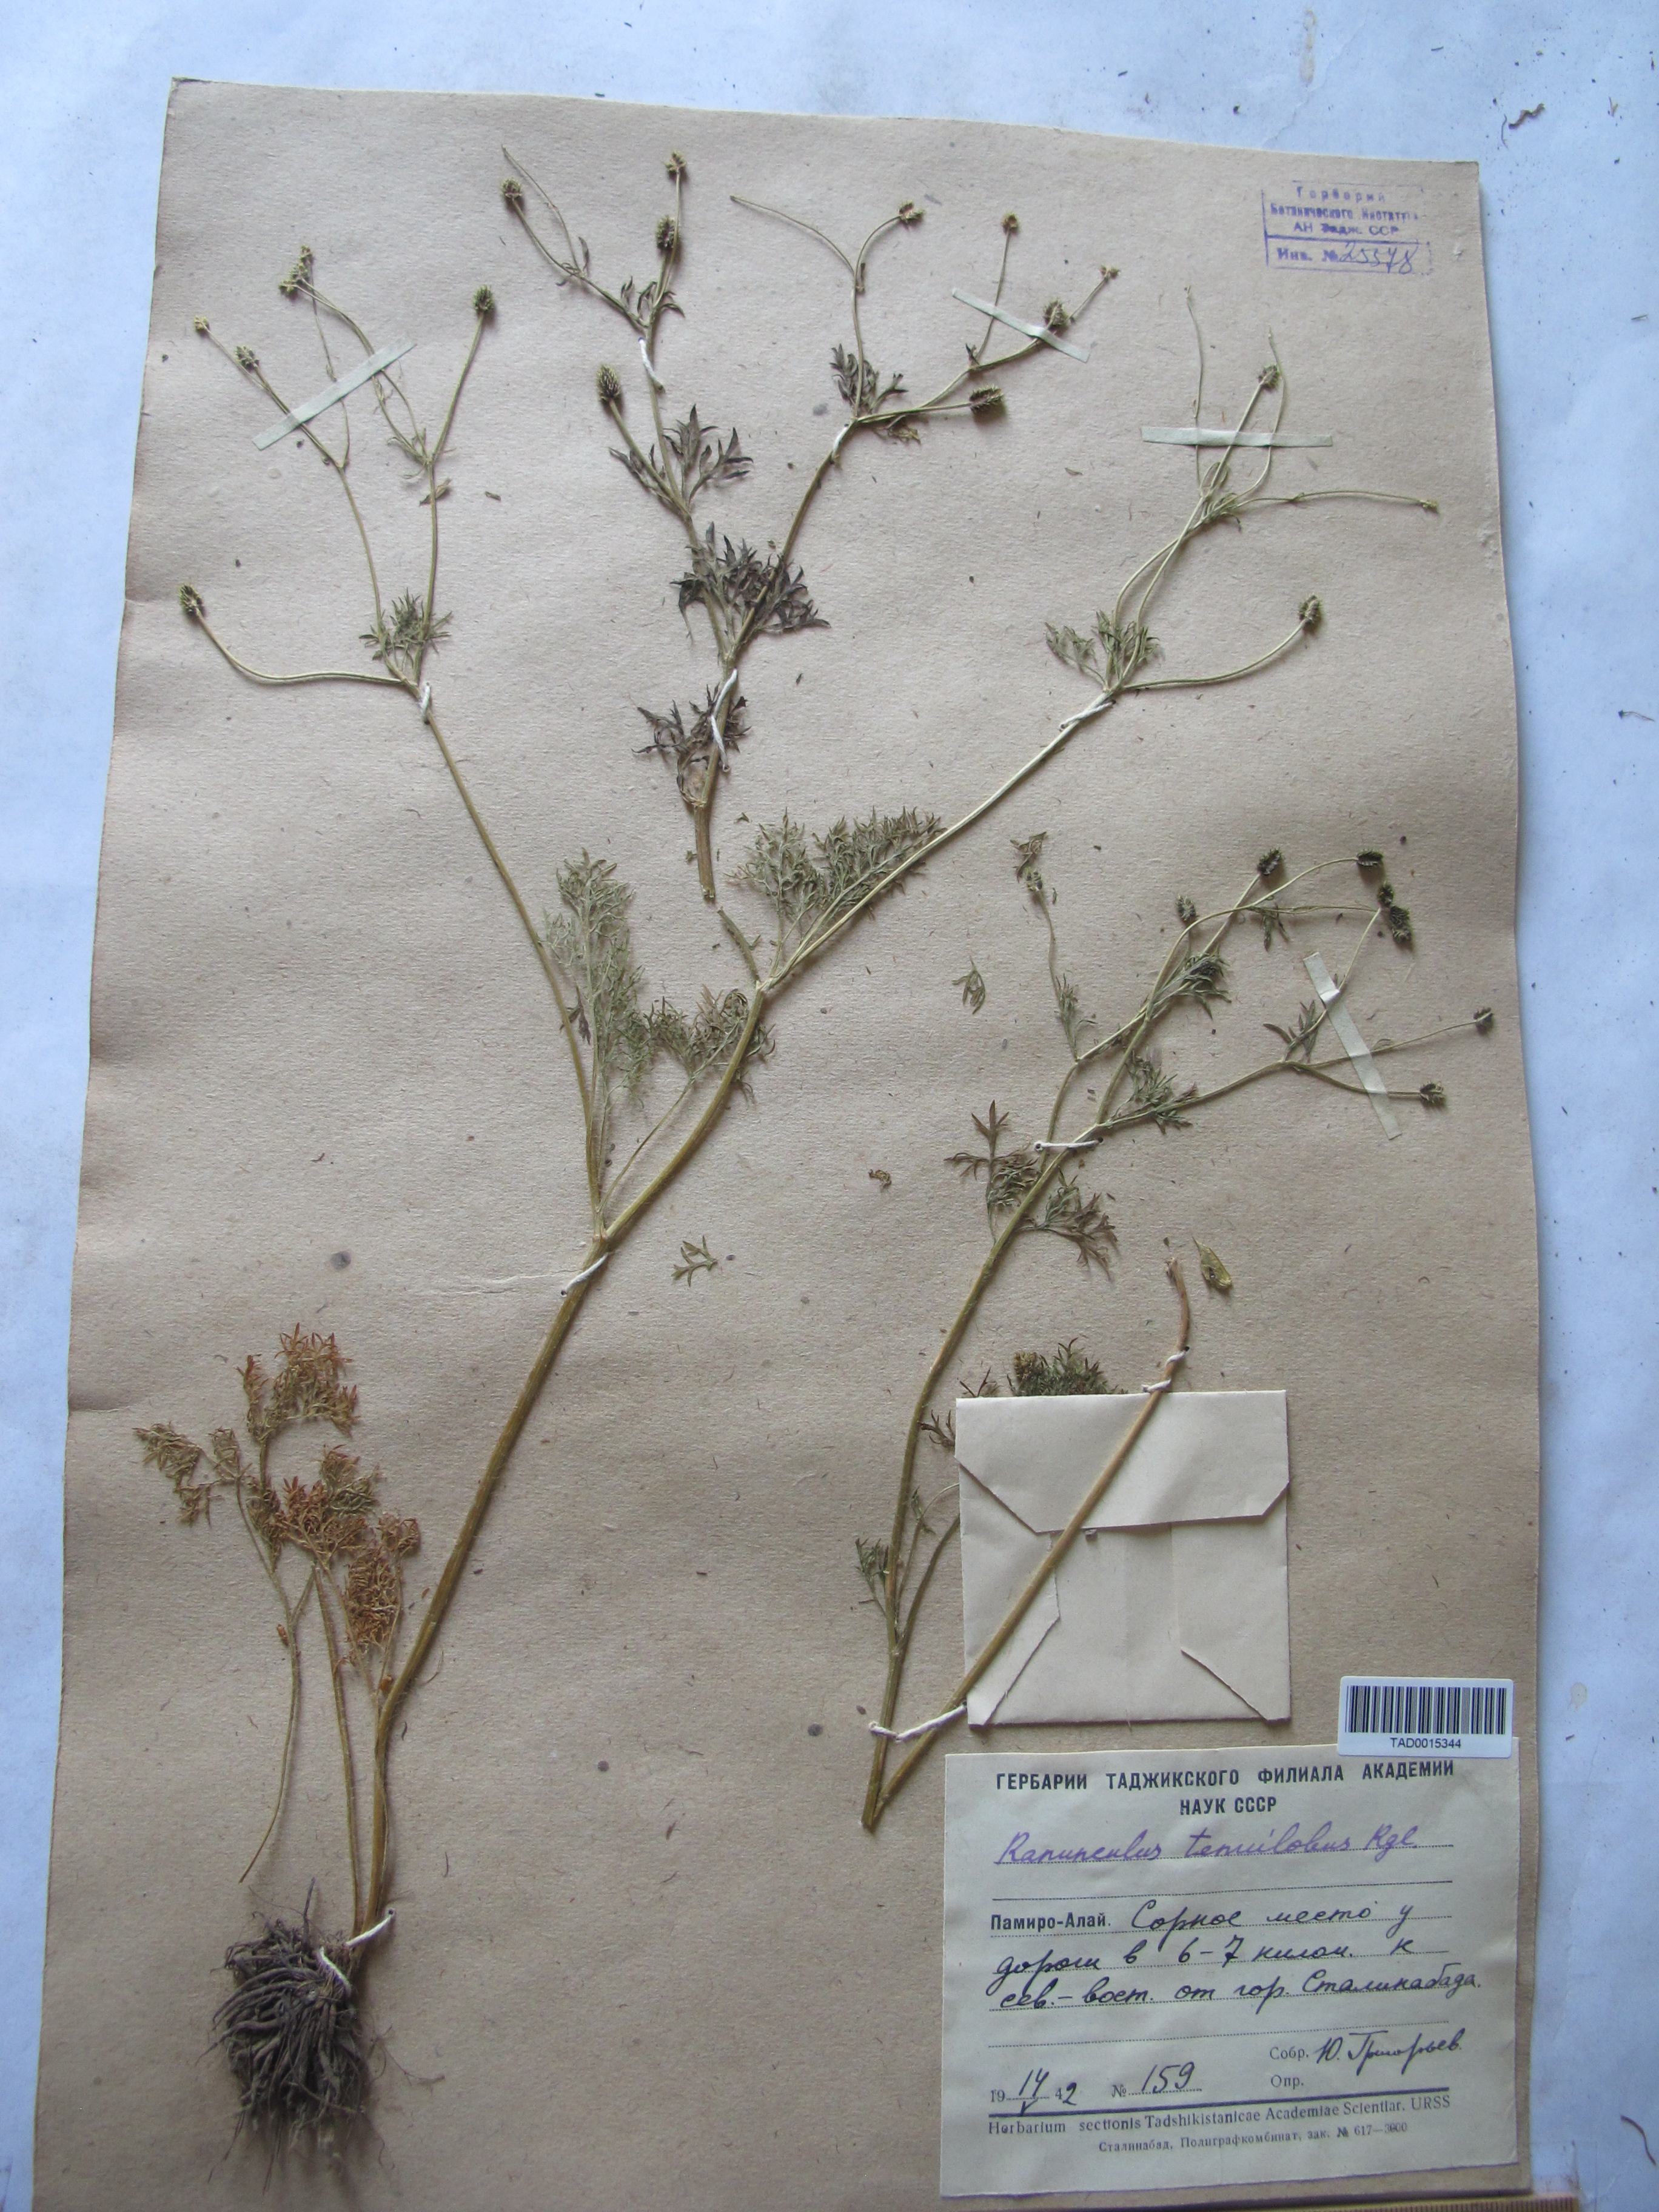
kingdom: Plantae
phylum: Tracheophyta
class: Magnoliopsida
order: Ranunculales
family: Ranunculaceae
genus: Ranunculus
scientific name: Ranunculus tenuilobus
